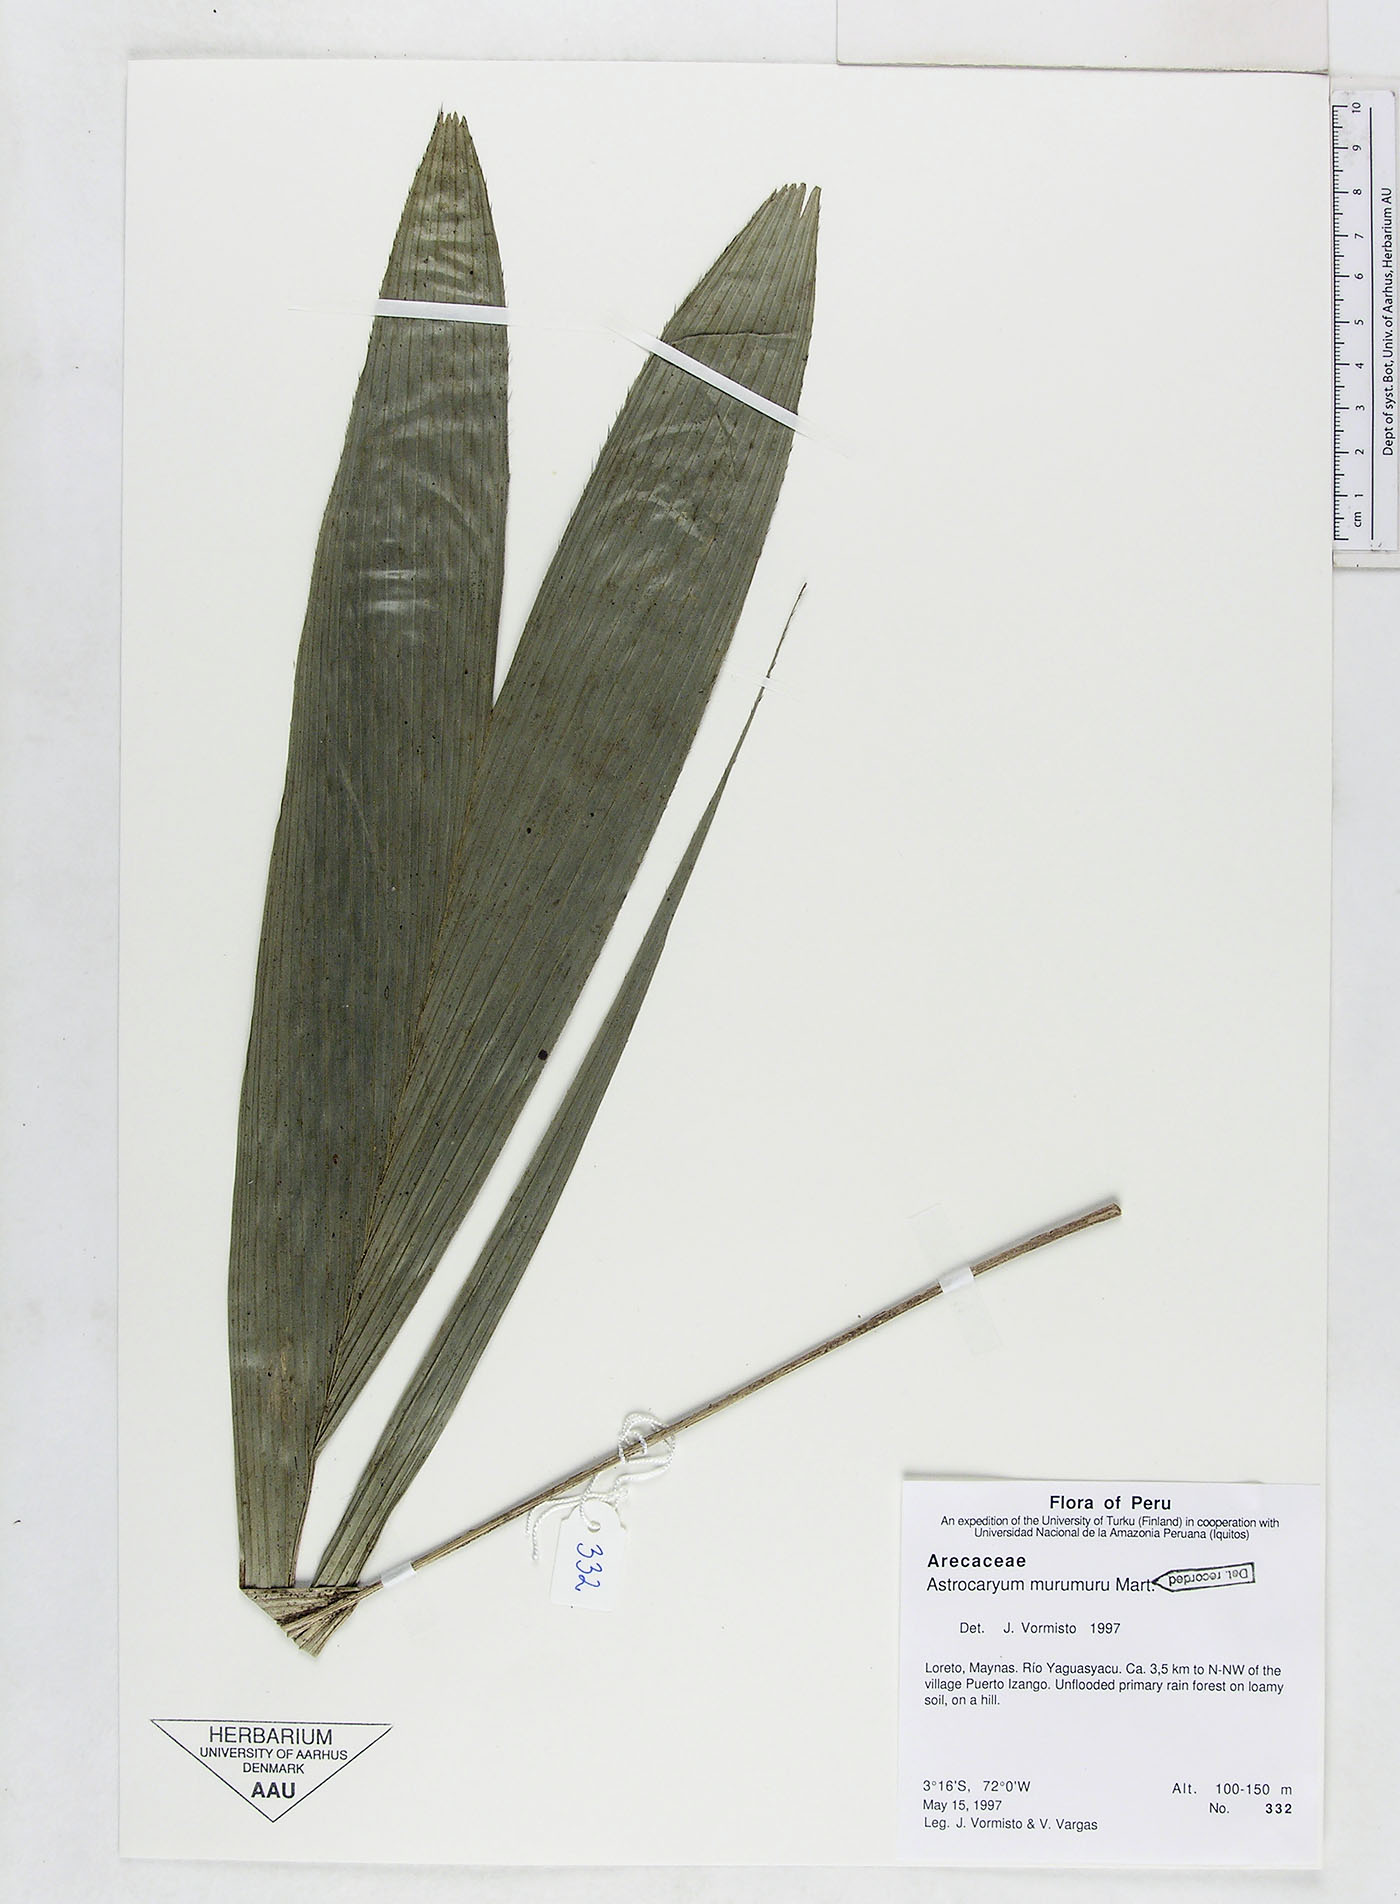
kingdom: Plantae
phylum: Tracheophyta
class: Liliopsida
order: Arecales
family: Arecaceae
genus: Astrocaryum
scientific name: Astrocaryum murumuru
